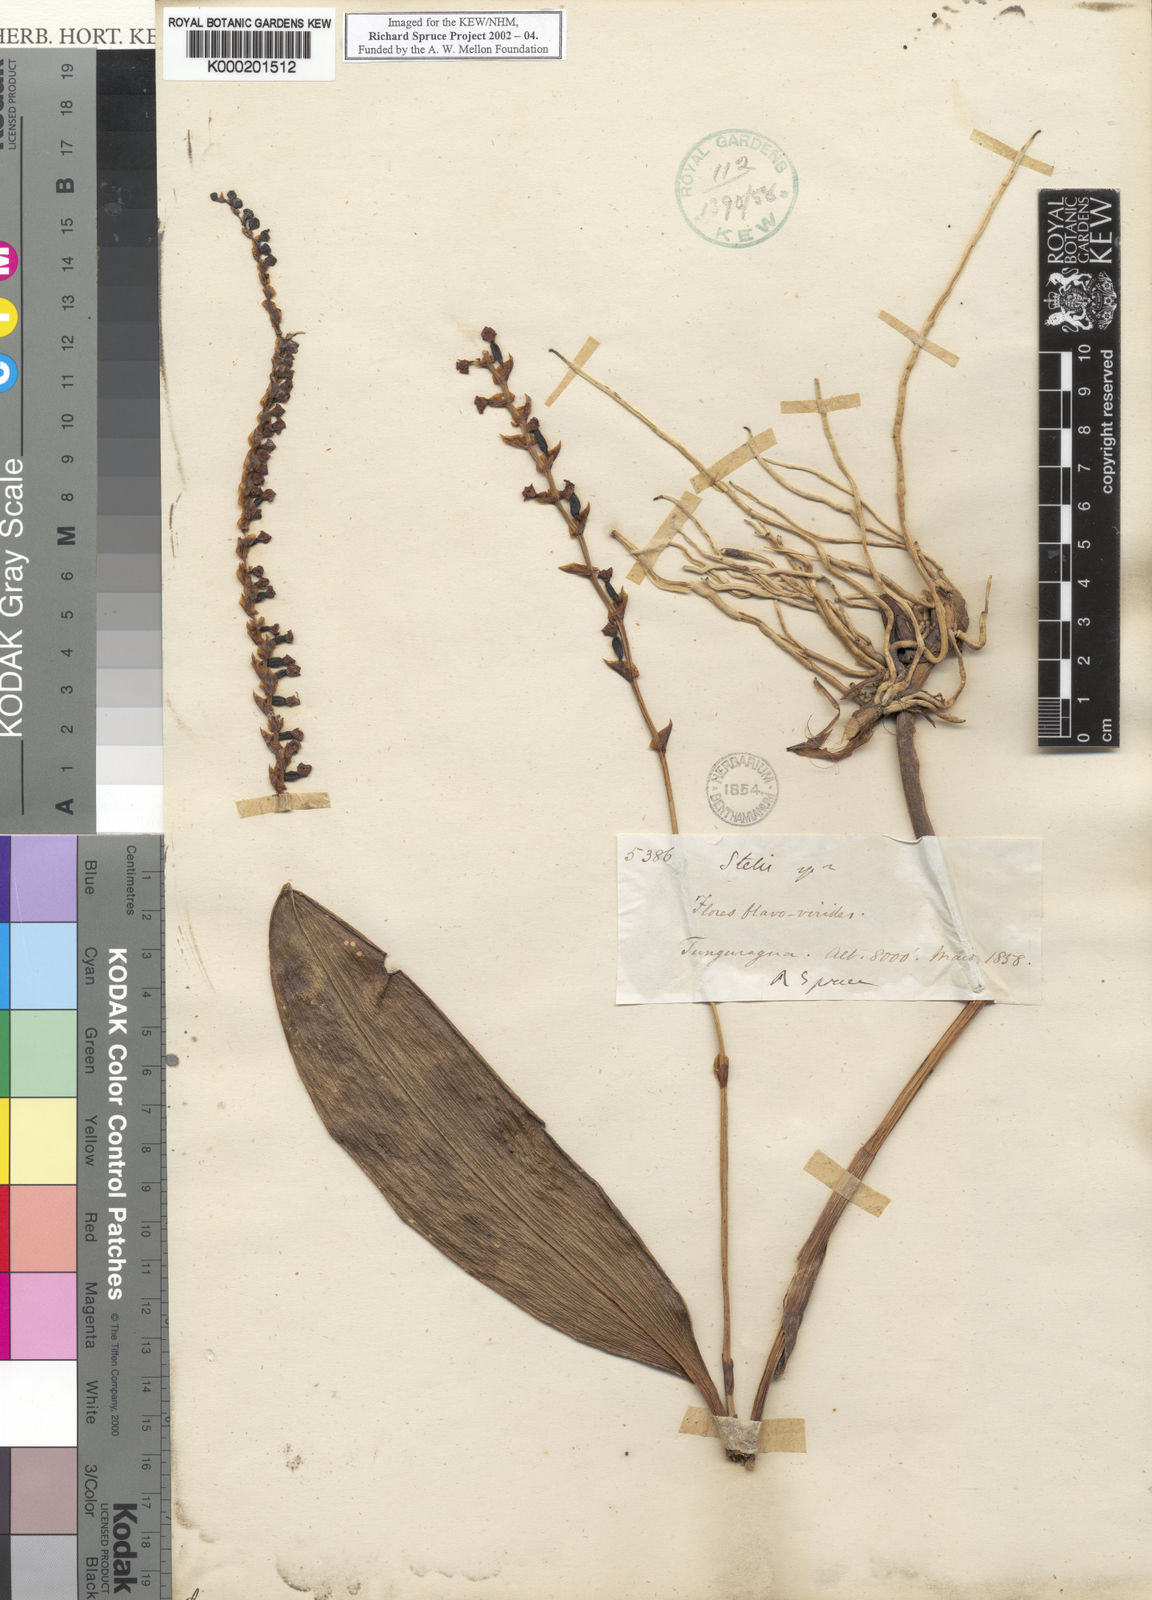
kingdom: Plantae
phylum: Tracheophyta
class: Liliopsida
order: Asparagales
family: Orchidaceae
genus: Stelis
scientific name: Stelis
